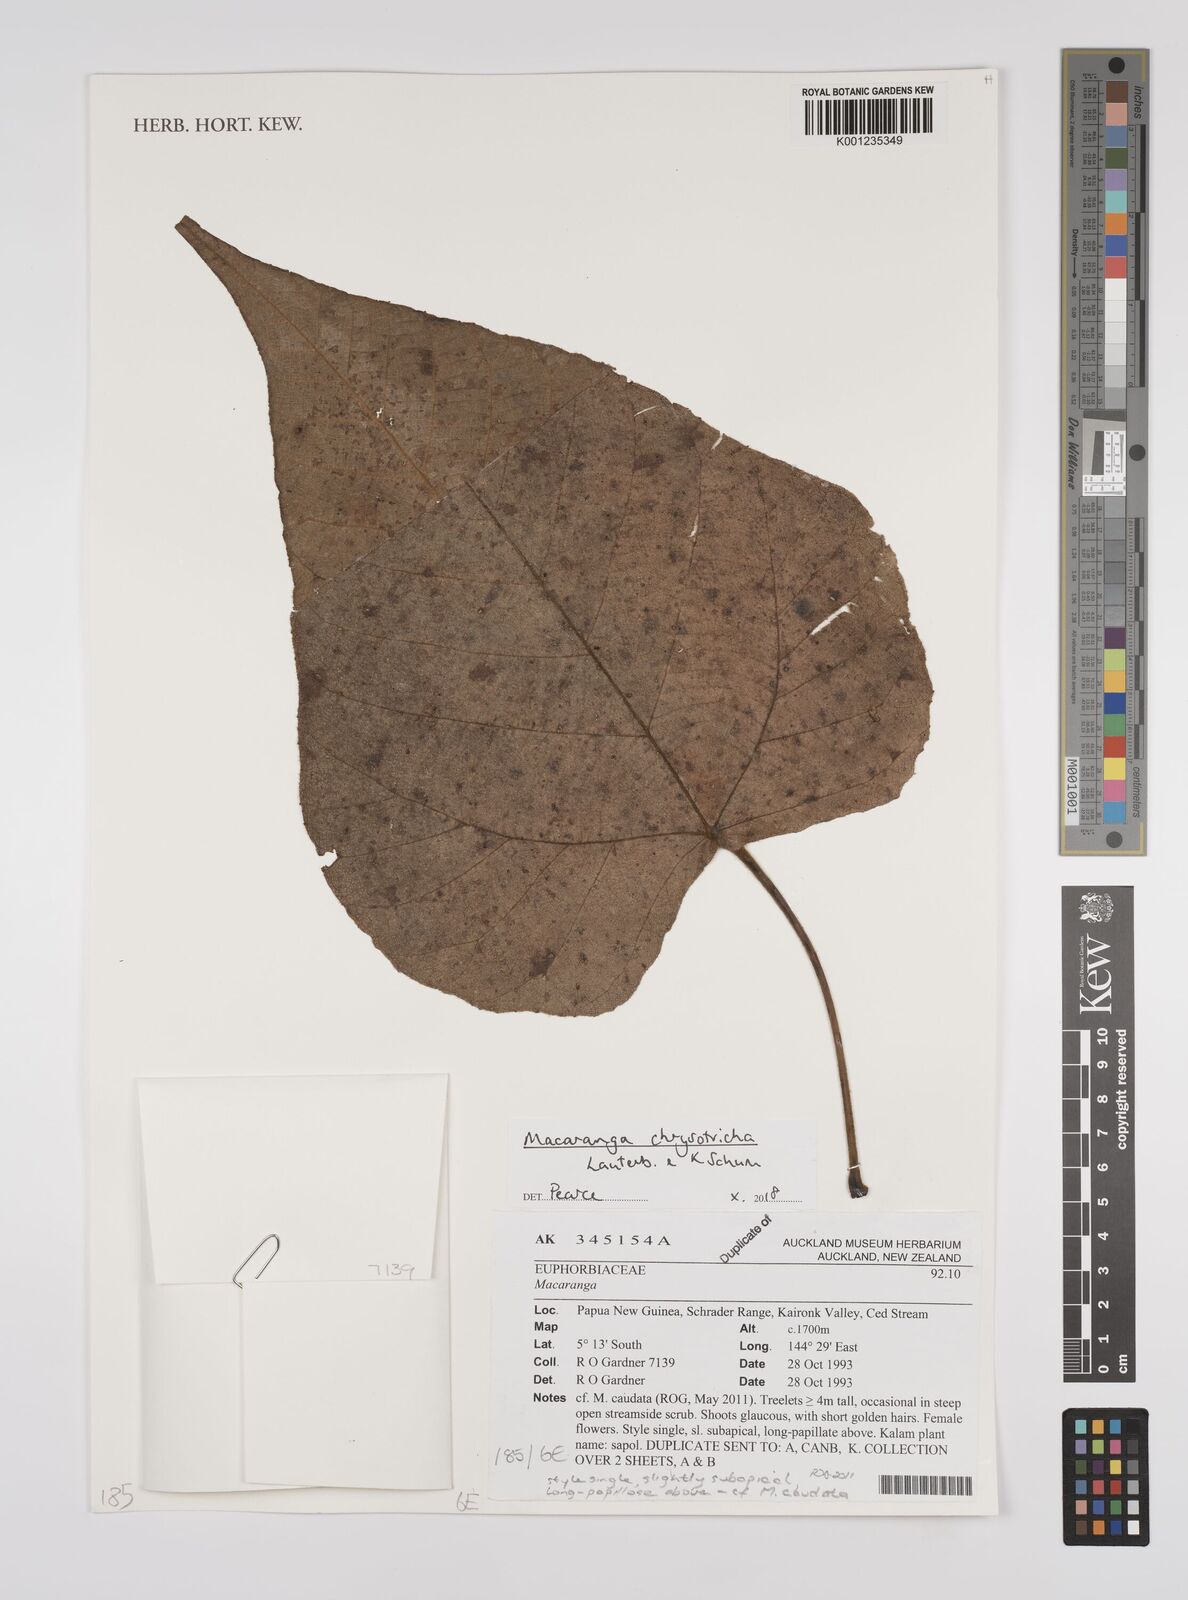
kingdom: Plantae
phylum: Tracheophyta
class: Magnoliopsida
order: Malpighiales
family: Euphorbiaceae
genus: Macaranga
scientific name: Macaranga chrysotricha
